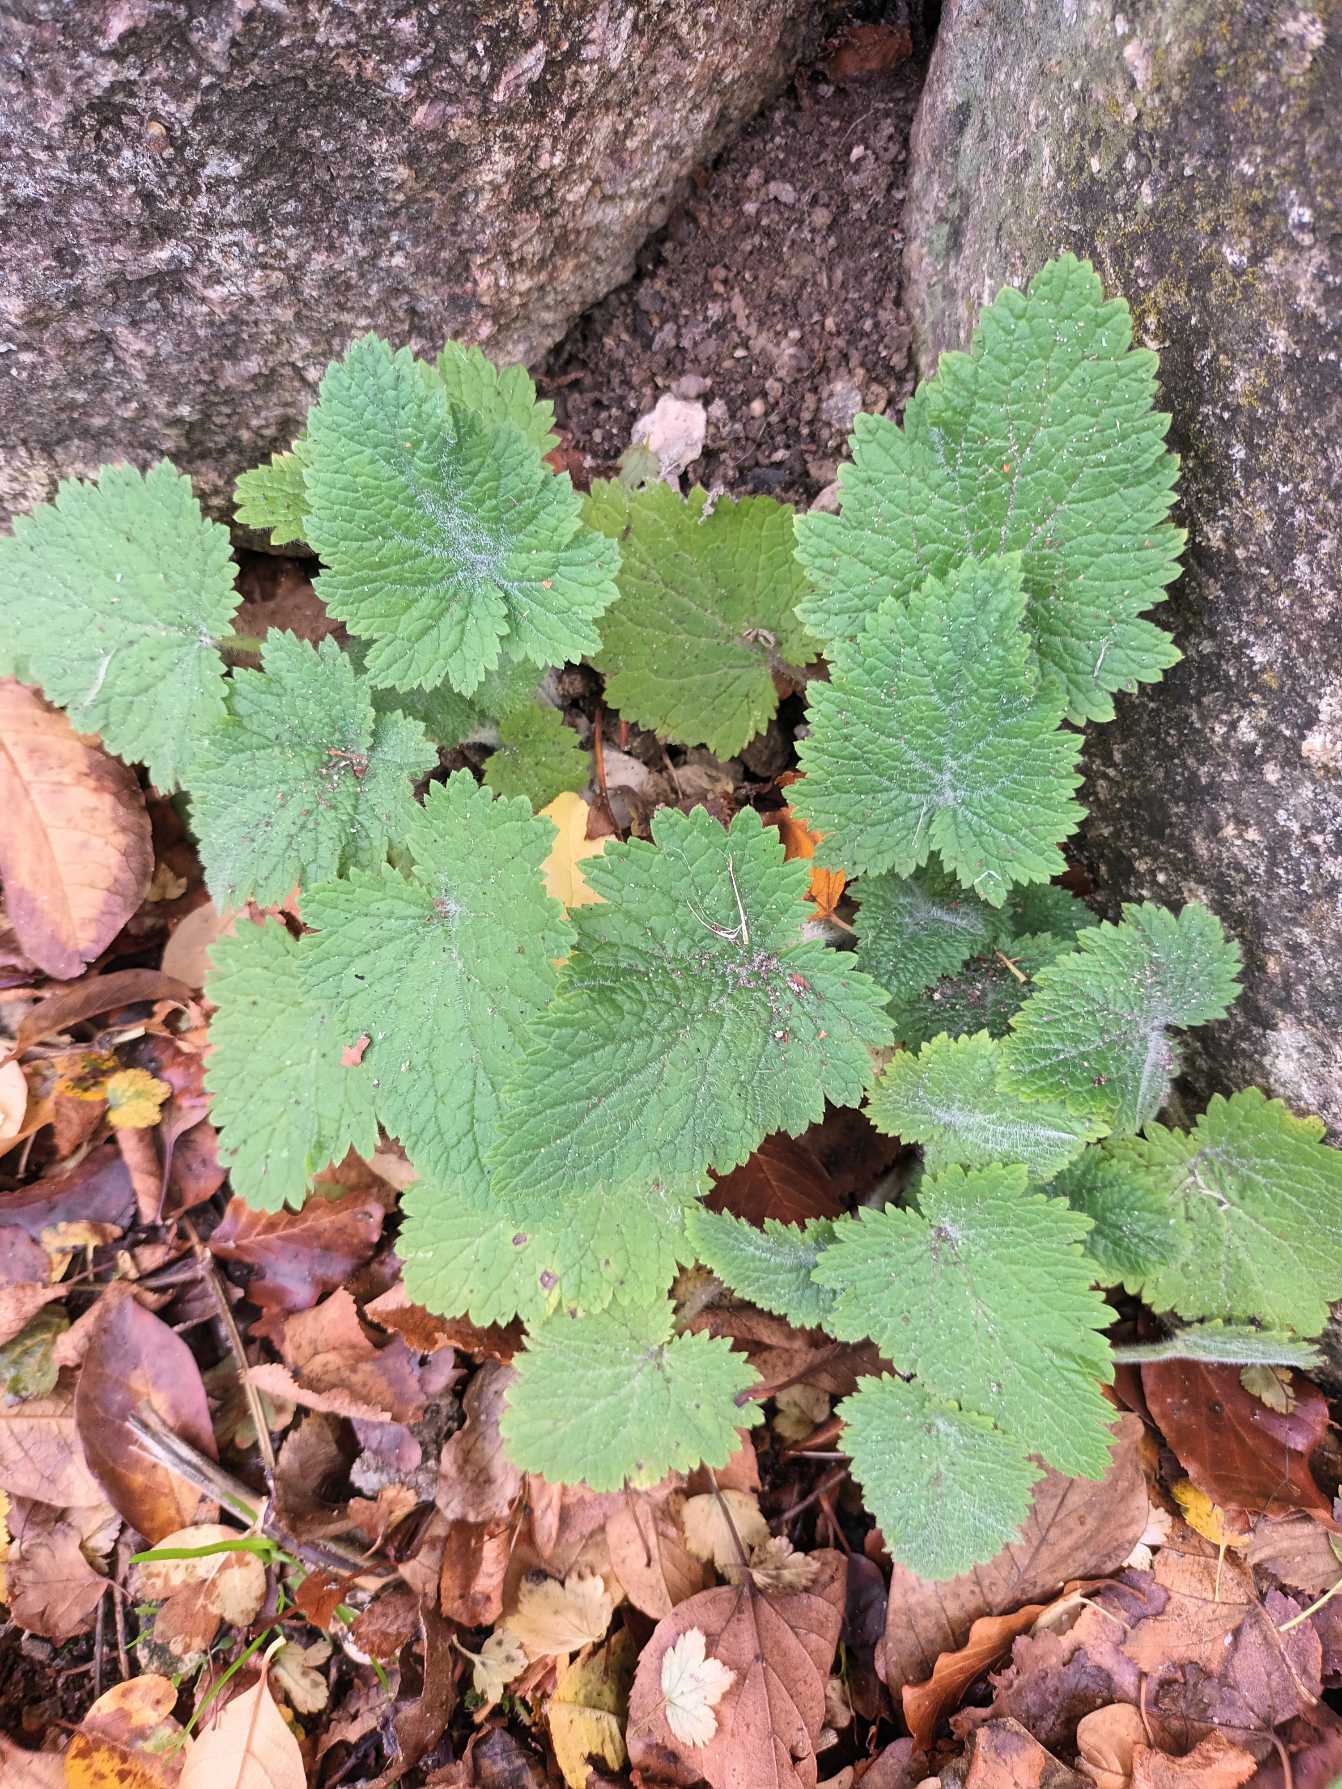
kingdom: Plantae
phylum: Tracheophyta
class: Magnoliopsida
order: Lamiales
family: Scrophulariaceae
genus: Scrophularia
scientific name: Scrophularia vernalis
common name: Vår-brunrod
